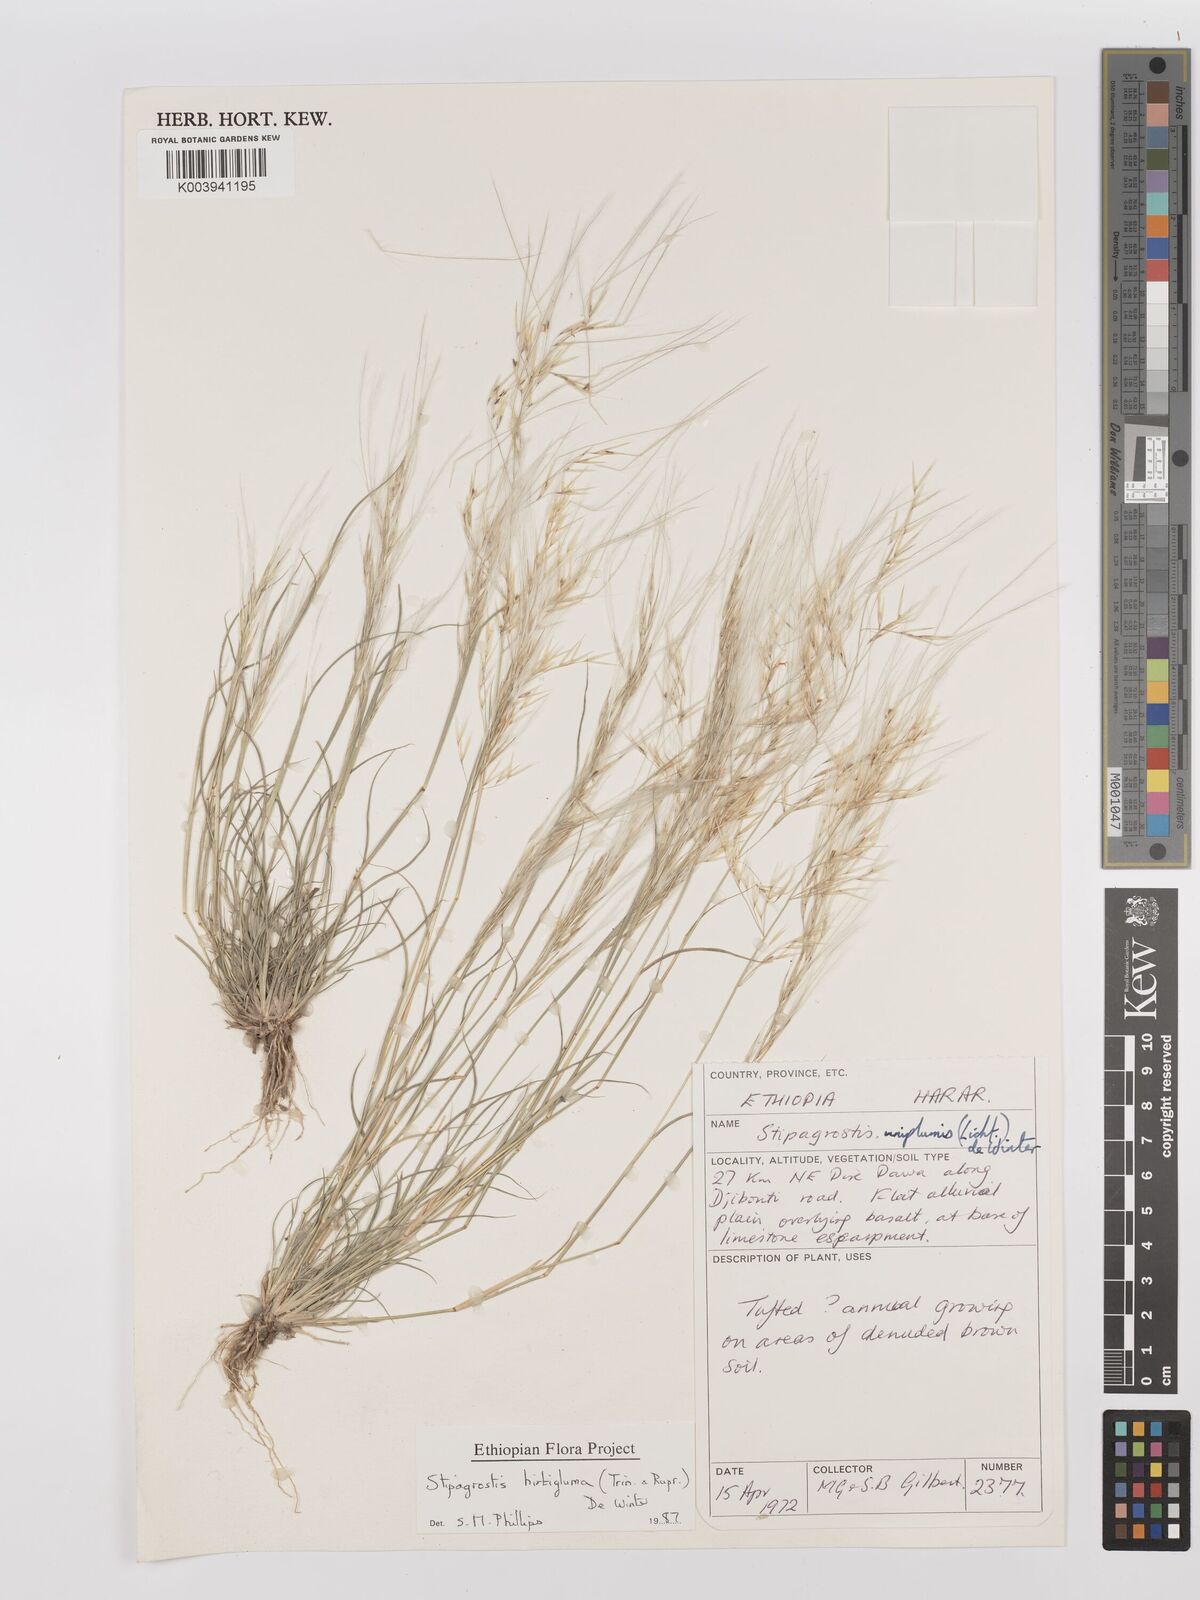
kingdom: Plantae
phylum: Tracheophyta
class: Liliopsida
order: Poales
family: Poaceae
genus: Stipagrostis
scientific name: Stipagrostis hirtigluma
